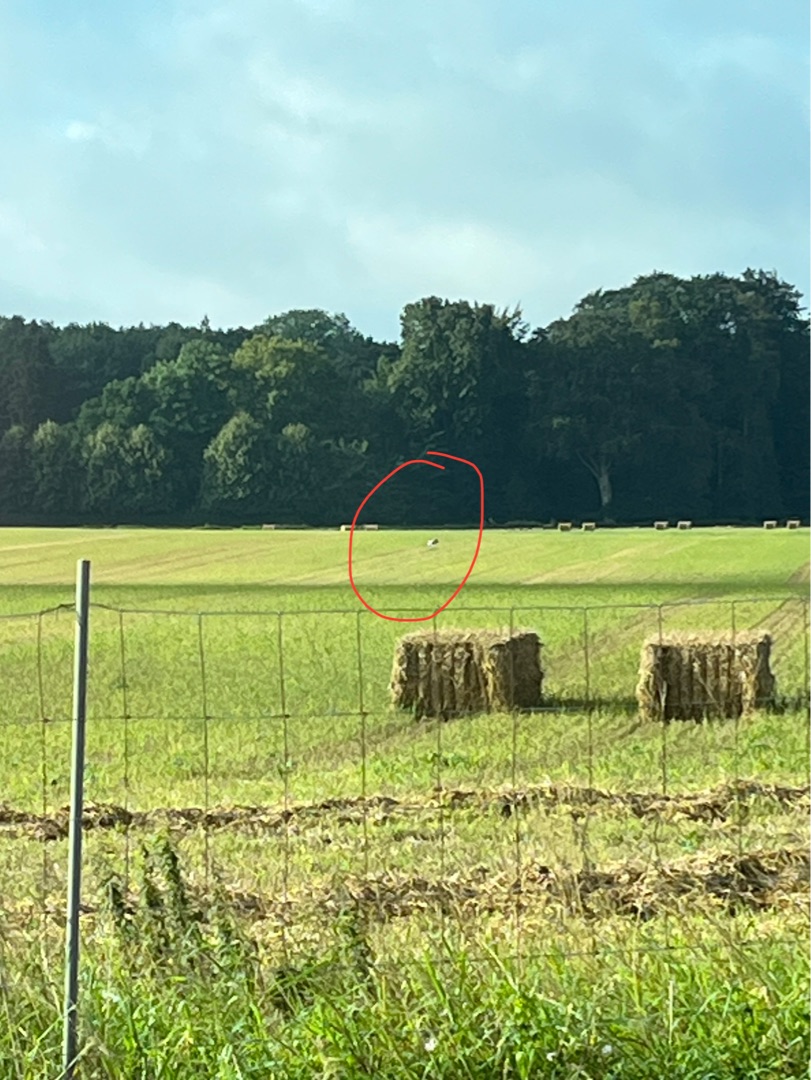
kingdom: Animalia
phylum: Chordata
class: Aves
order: Gruiformes
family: Gruidae
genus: Grus
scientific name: Grus grus
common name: Trane
